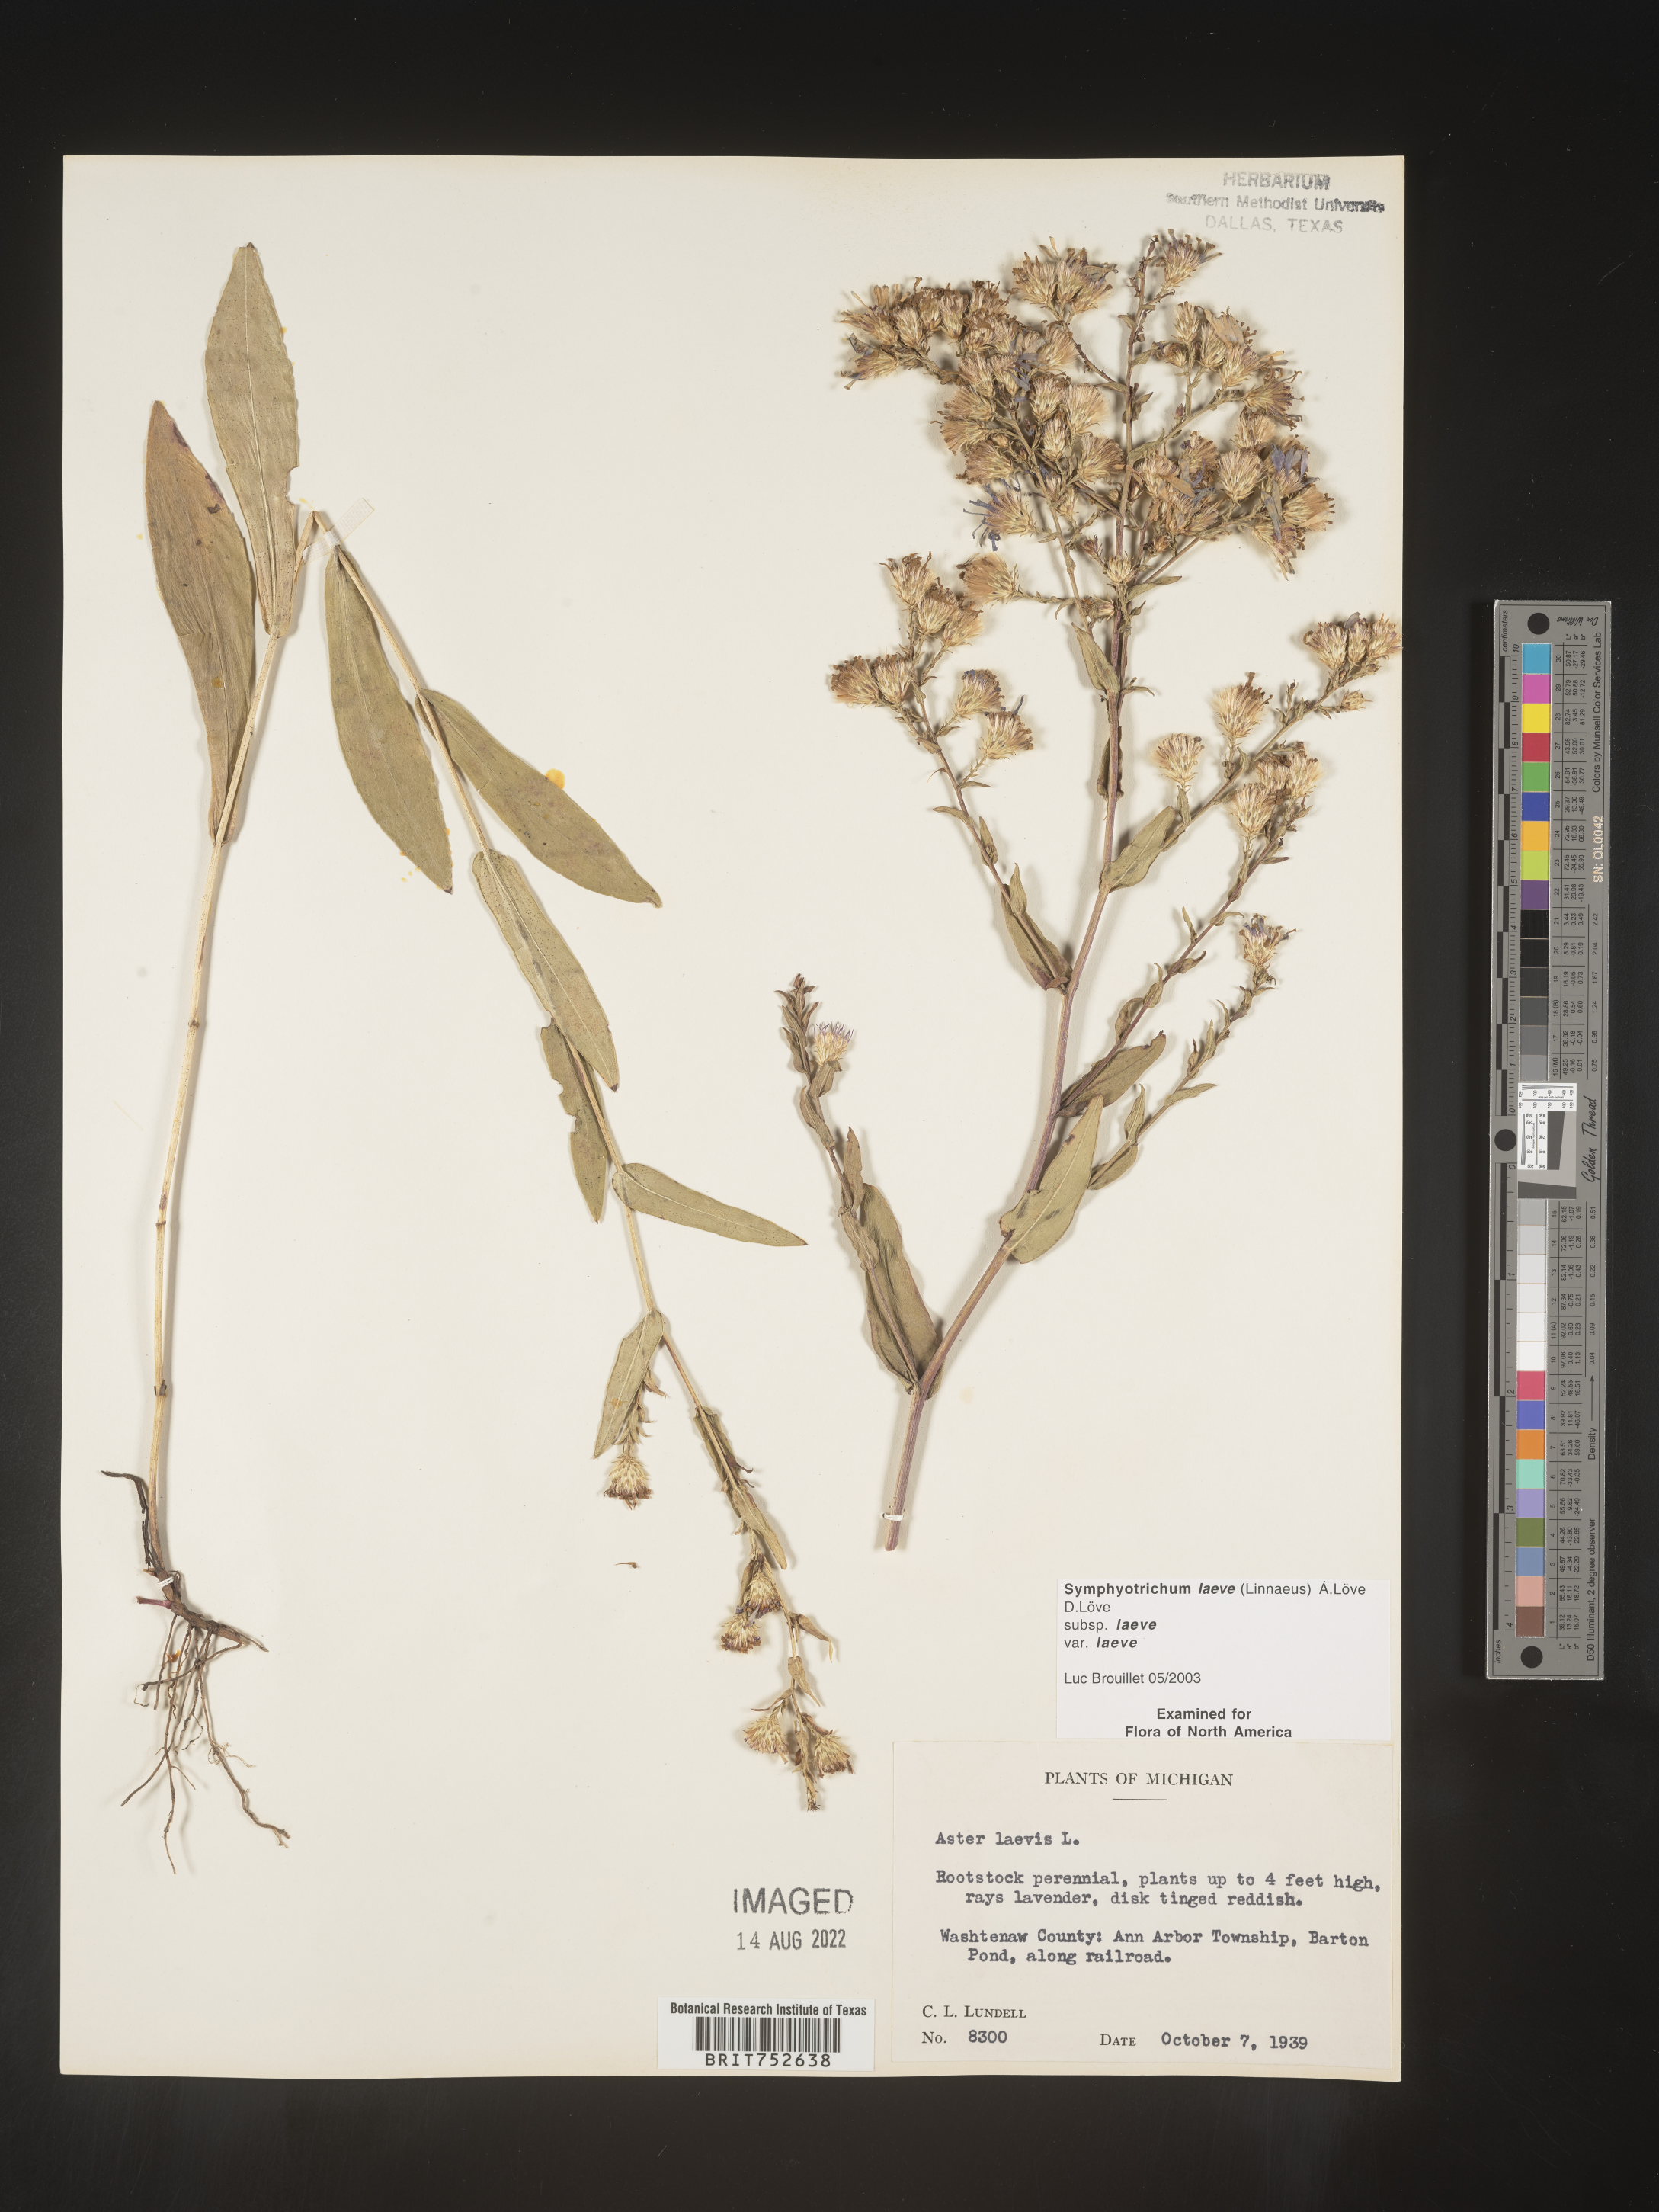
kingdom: Plantae
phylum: Tracheophyta
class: Magnoliopsida
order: Asterales
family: Asteraceae
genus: Symphyotrichum
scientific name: Symphyotrichum laeve
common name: Glaucous aster
